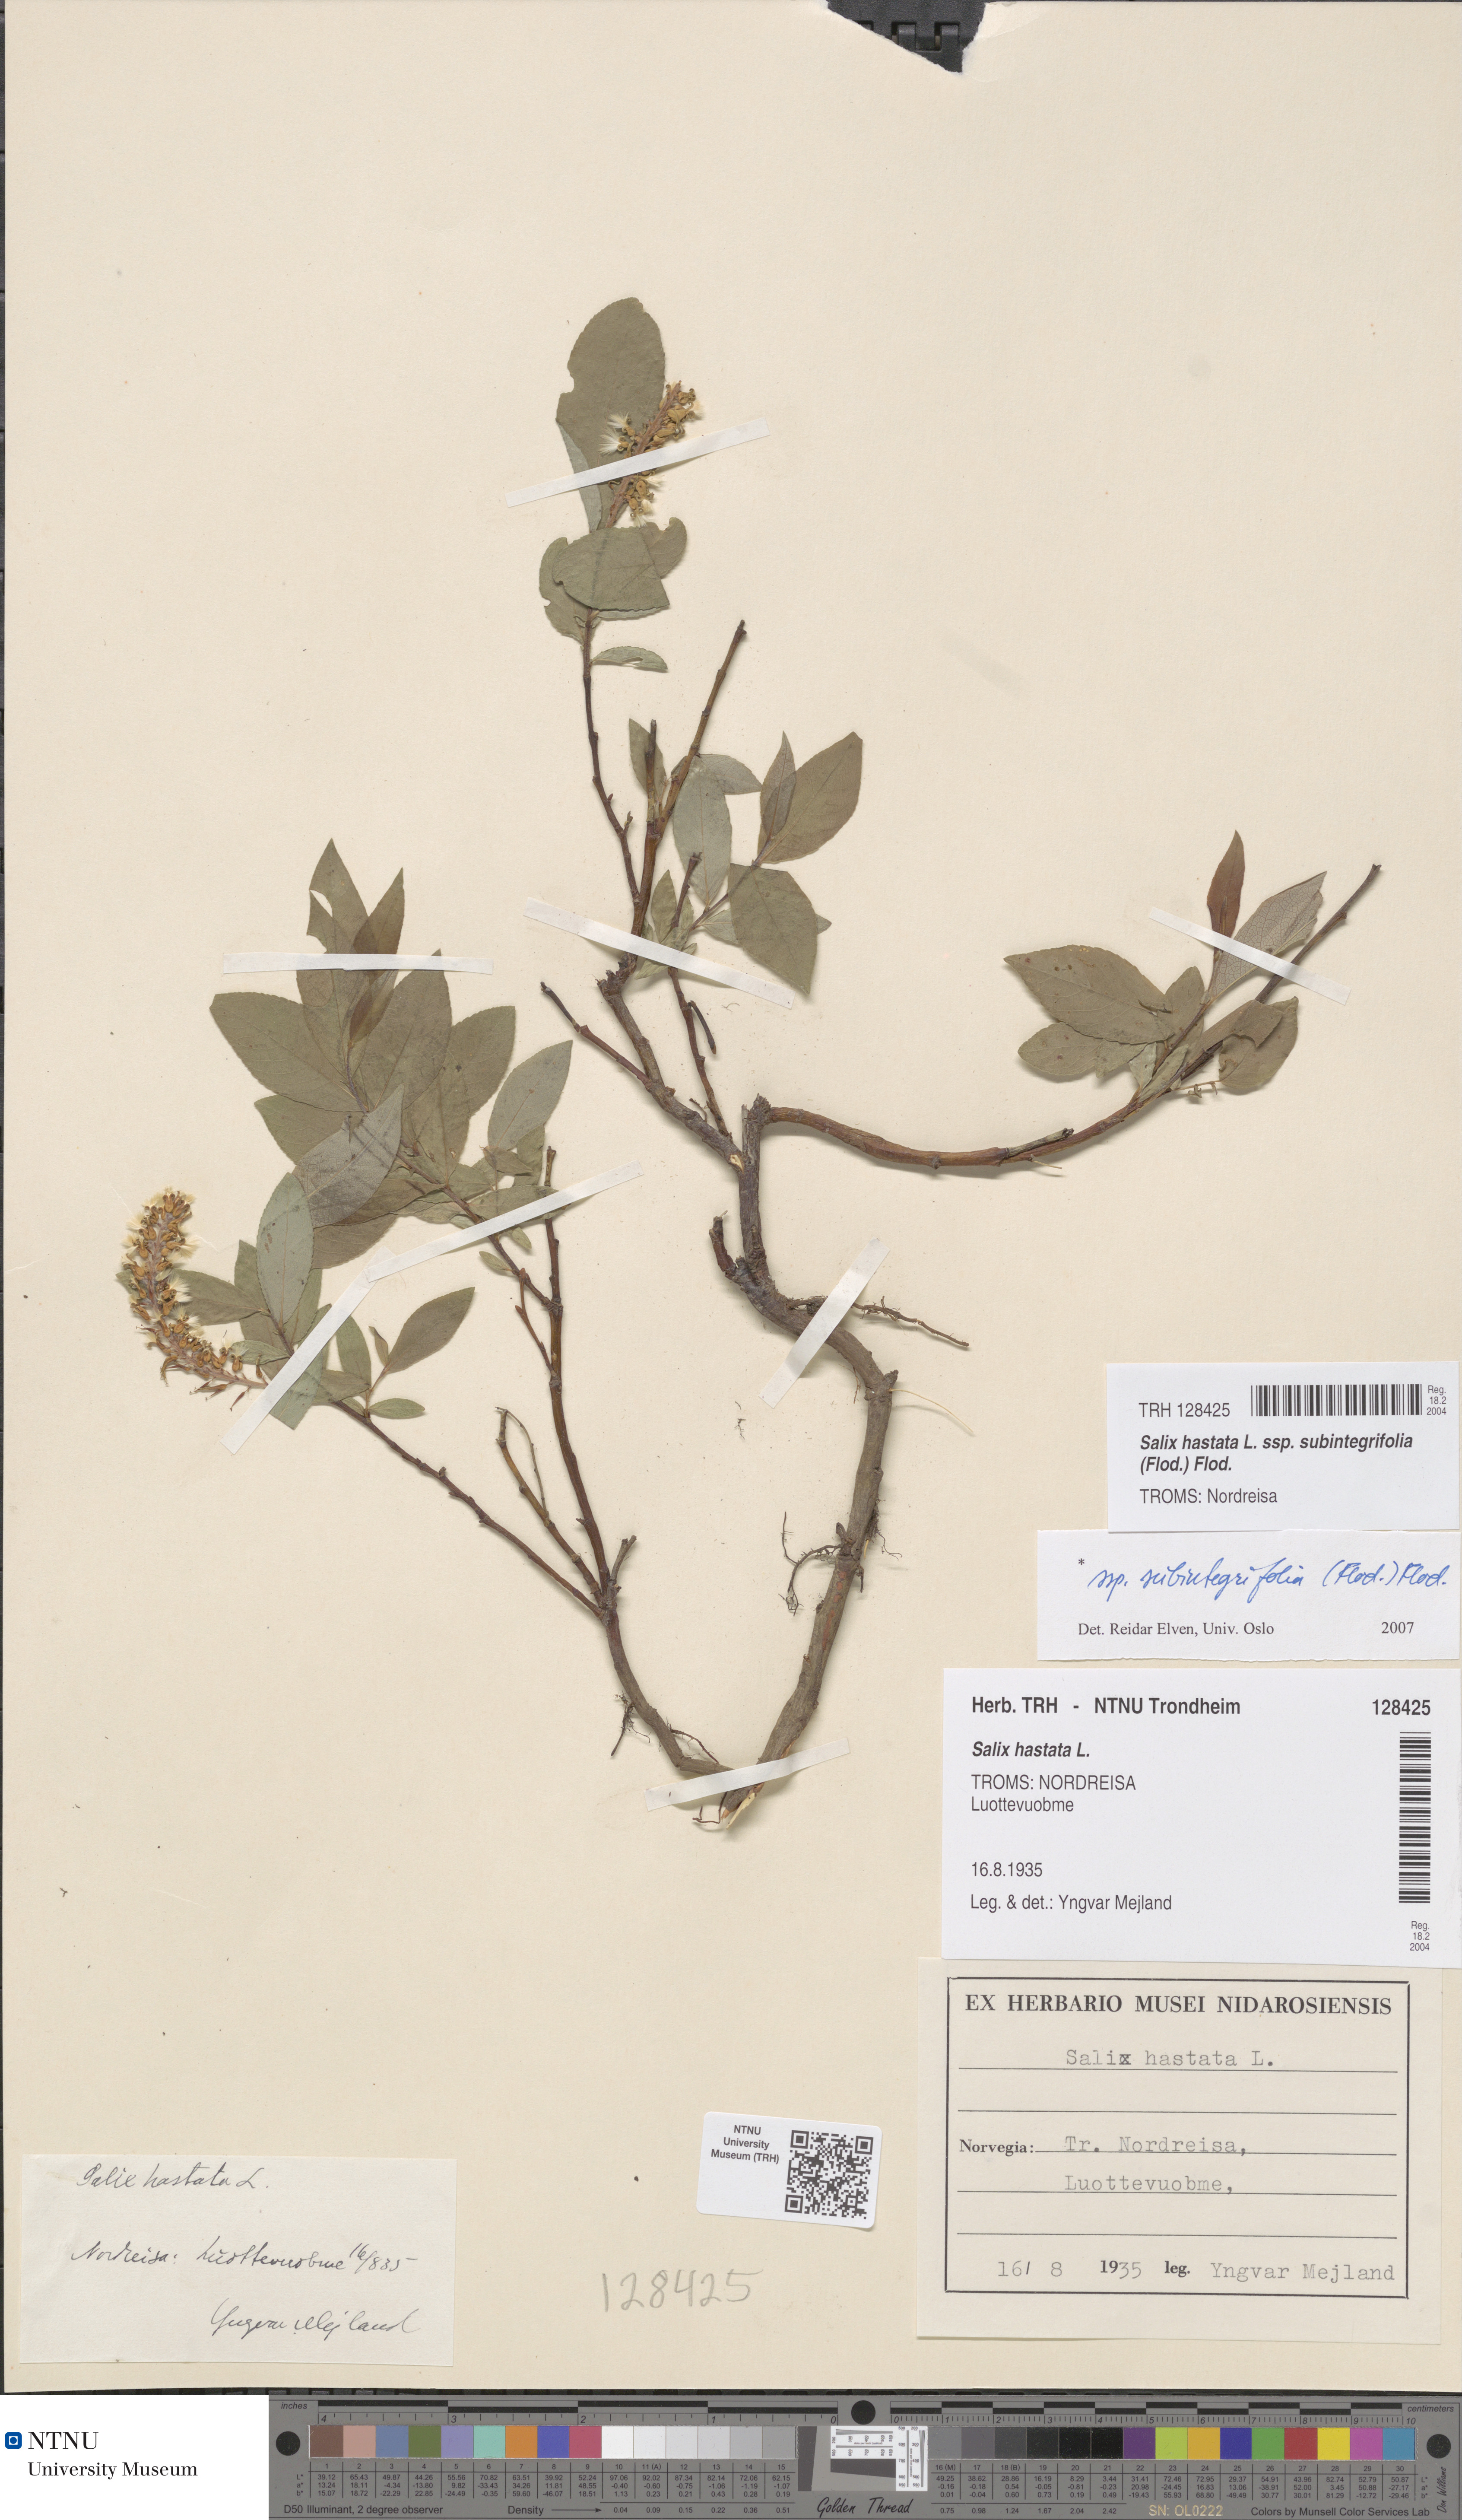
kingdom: Plantae
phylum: Tracheophyta
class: Magnoliopsida
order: Malpighiales
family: Salicaceae
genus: Salix
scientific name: Salix hastata
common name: Halberd willow
